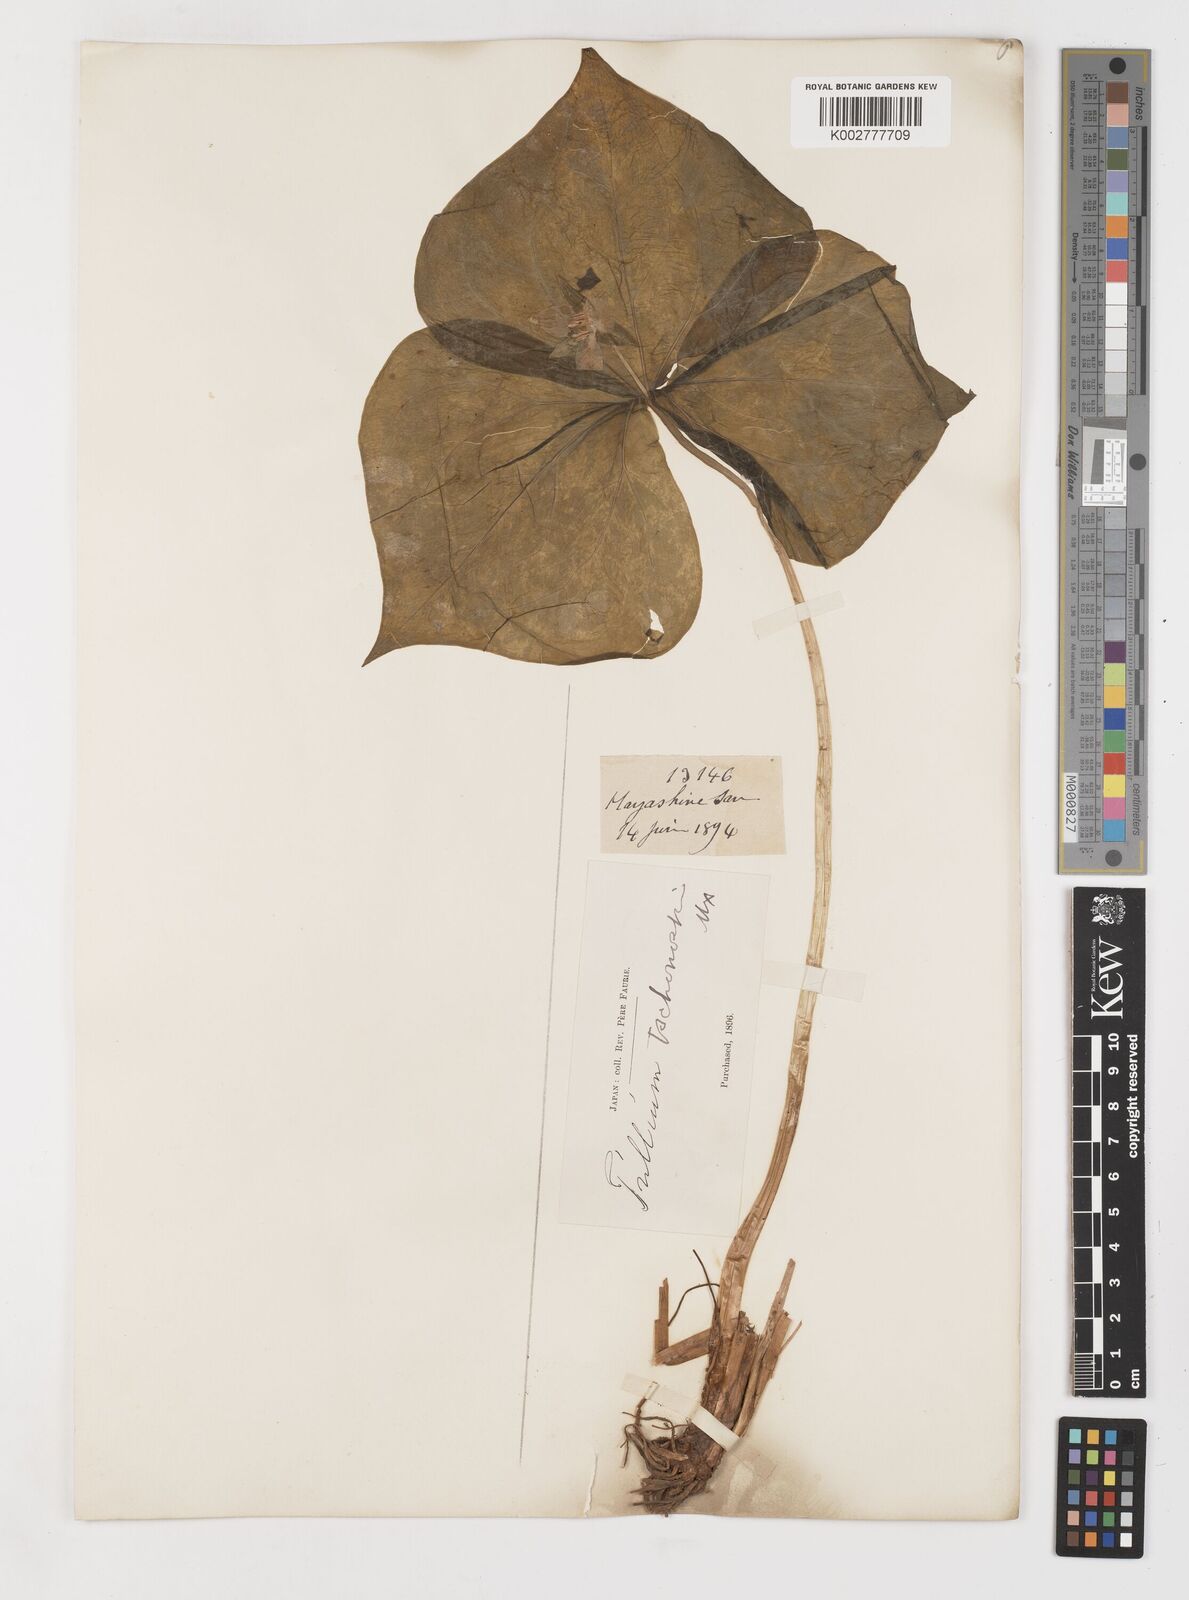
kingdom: Plantae
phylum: Tracheophyta
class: Liliopsida
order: Liliales
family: Melanthiaceae
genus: Trillium
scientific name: Trillium tschonoskii
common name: A pearl on head
